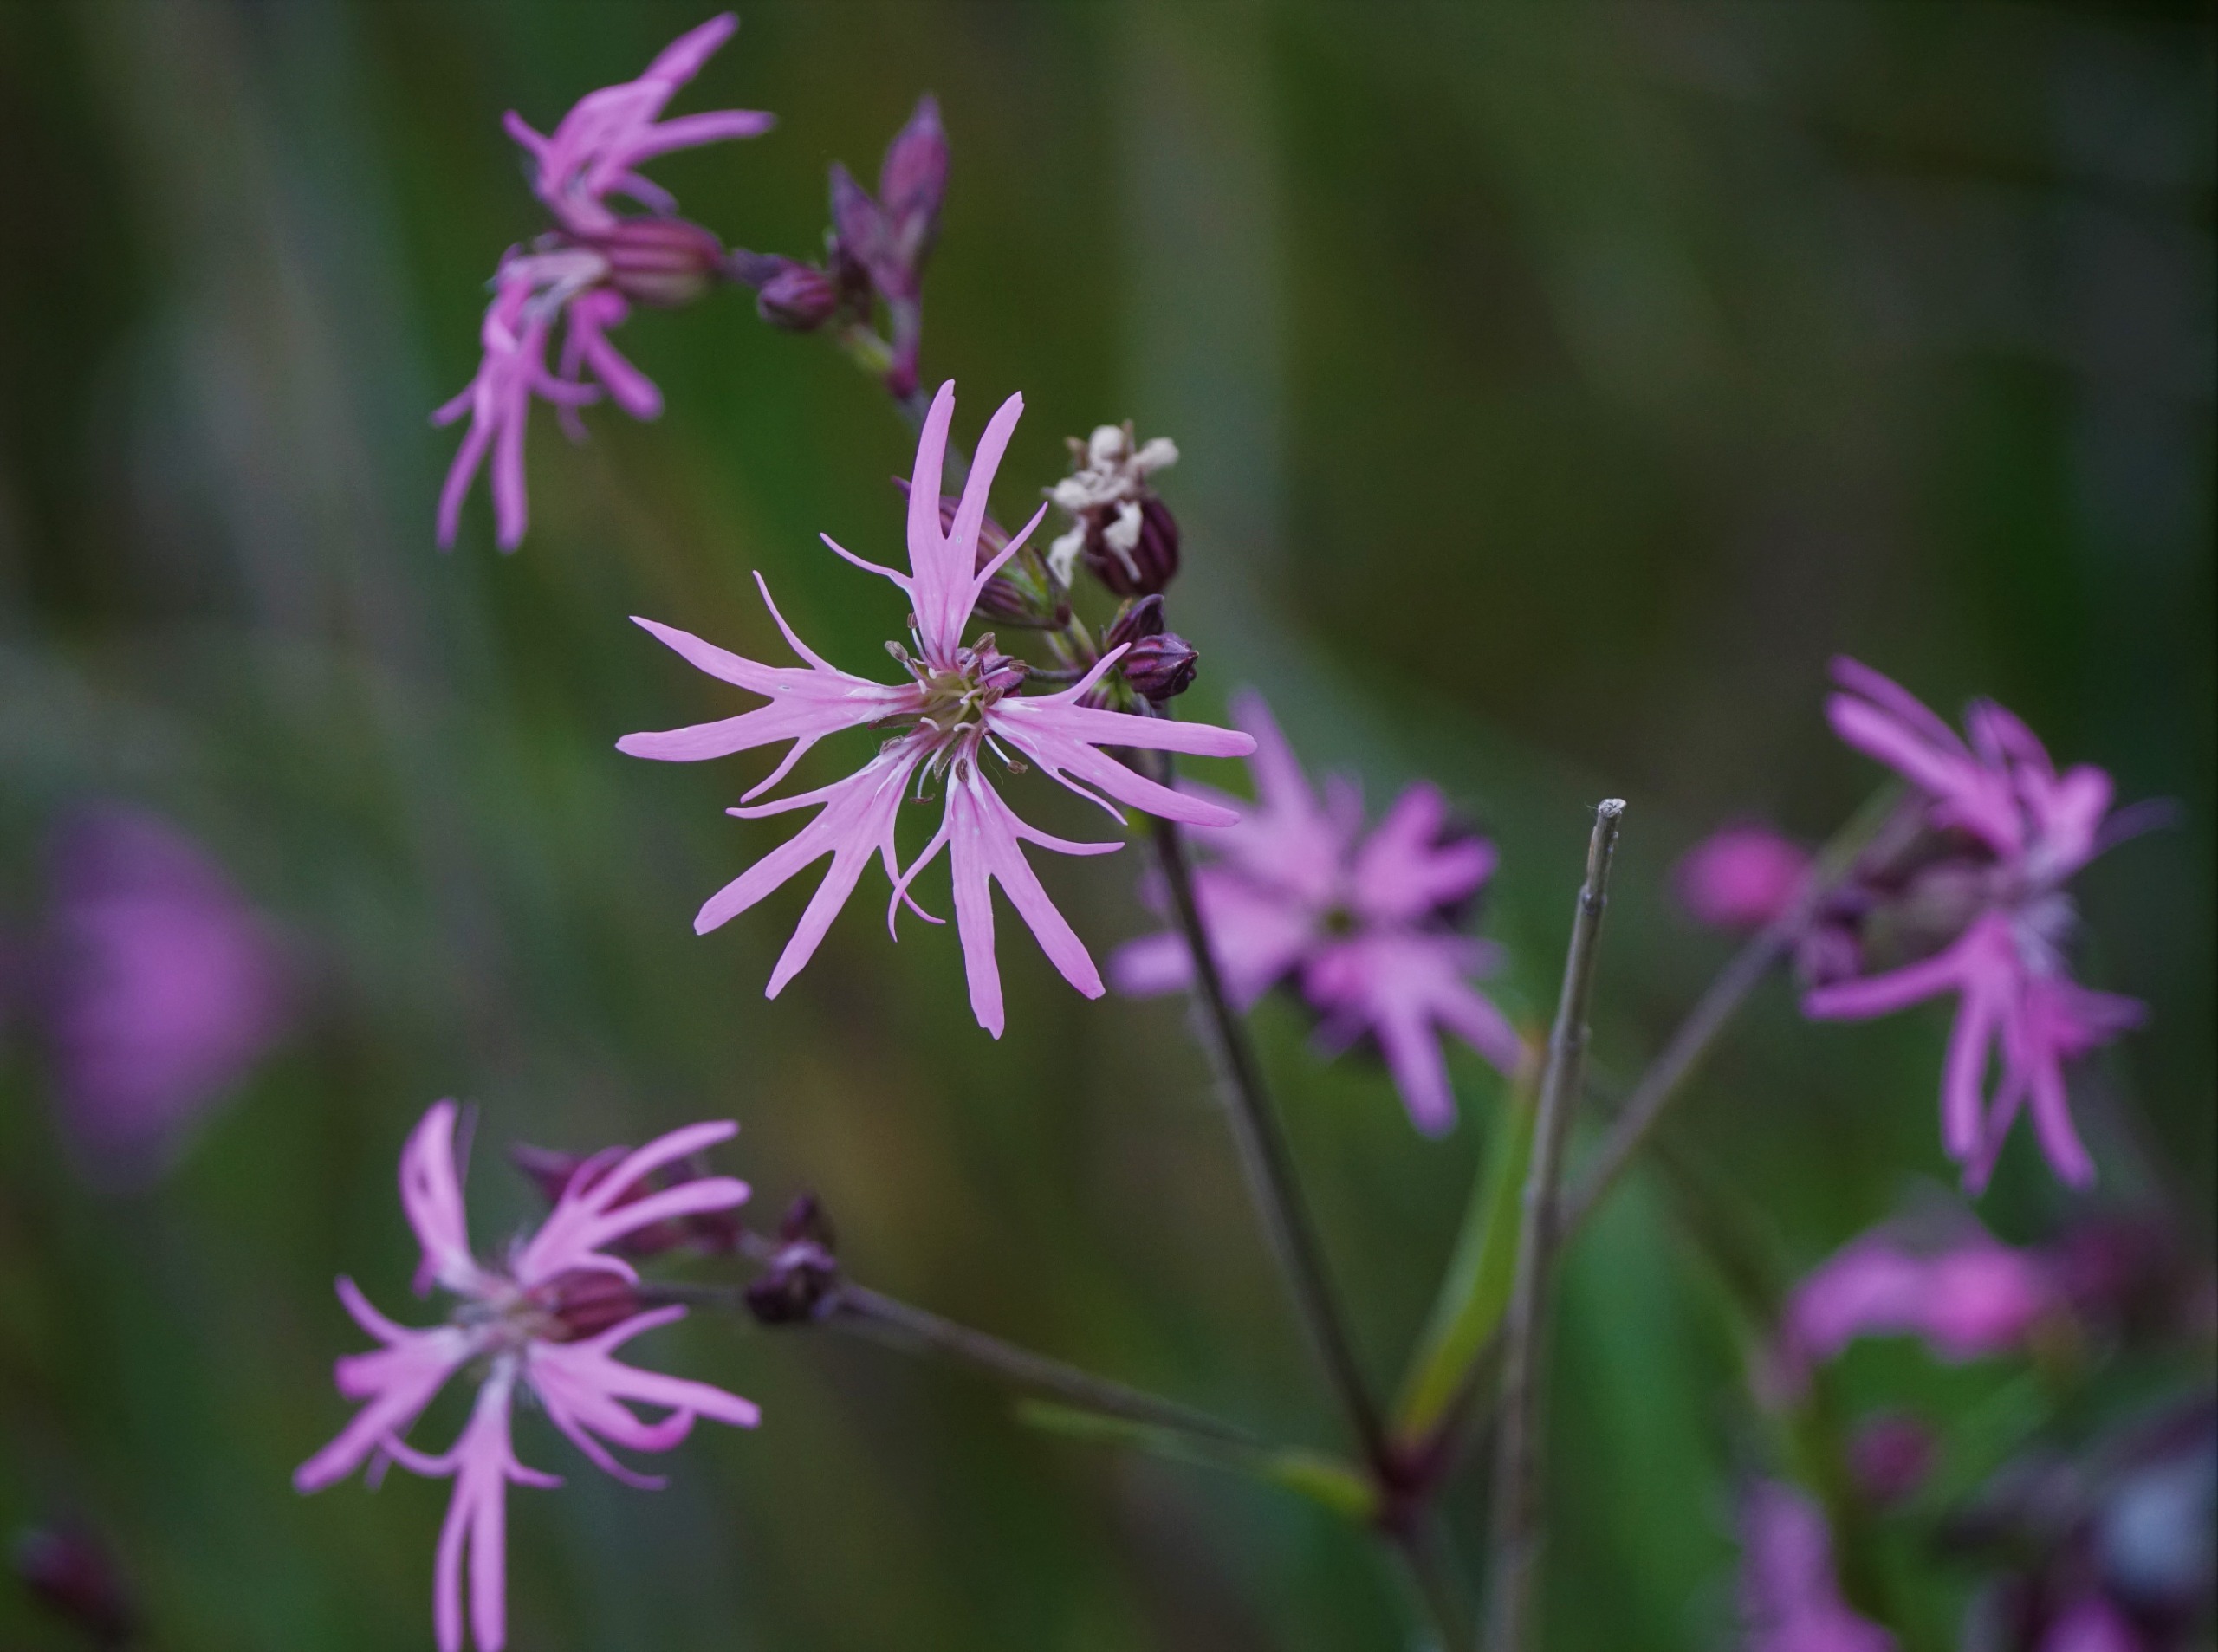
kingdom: Plantae
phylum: Tracheophyta
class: Magnoliopsida
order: Caryophyllales
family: Caryophyllaceae
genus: Silene
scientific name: Silene flos-cuculi
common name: Trævlekrone
